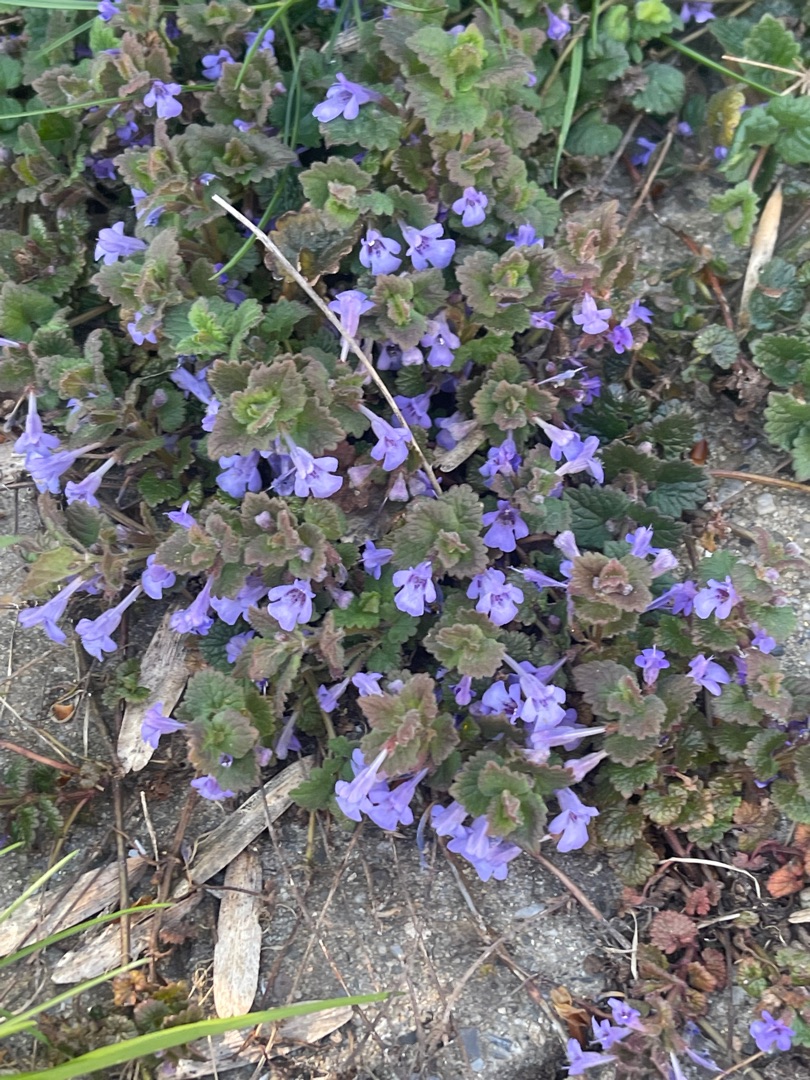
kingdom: Plantae
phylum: Tracheophyta
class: Magnoliopsida
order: Lamiales
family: Lamiaceae
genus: Glechoma
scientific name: Glechoma hederacea
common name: Korsknap
